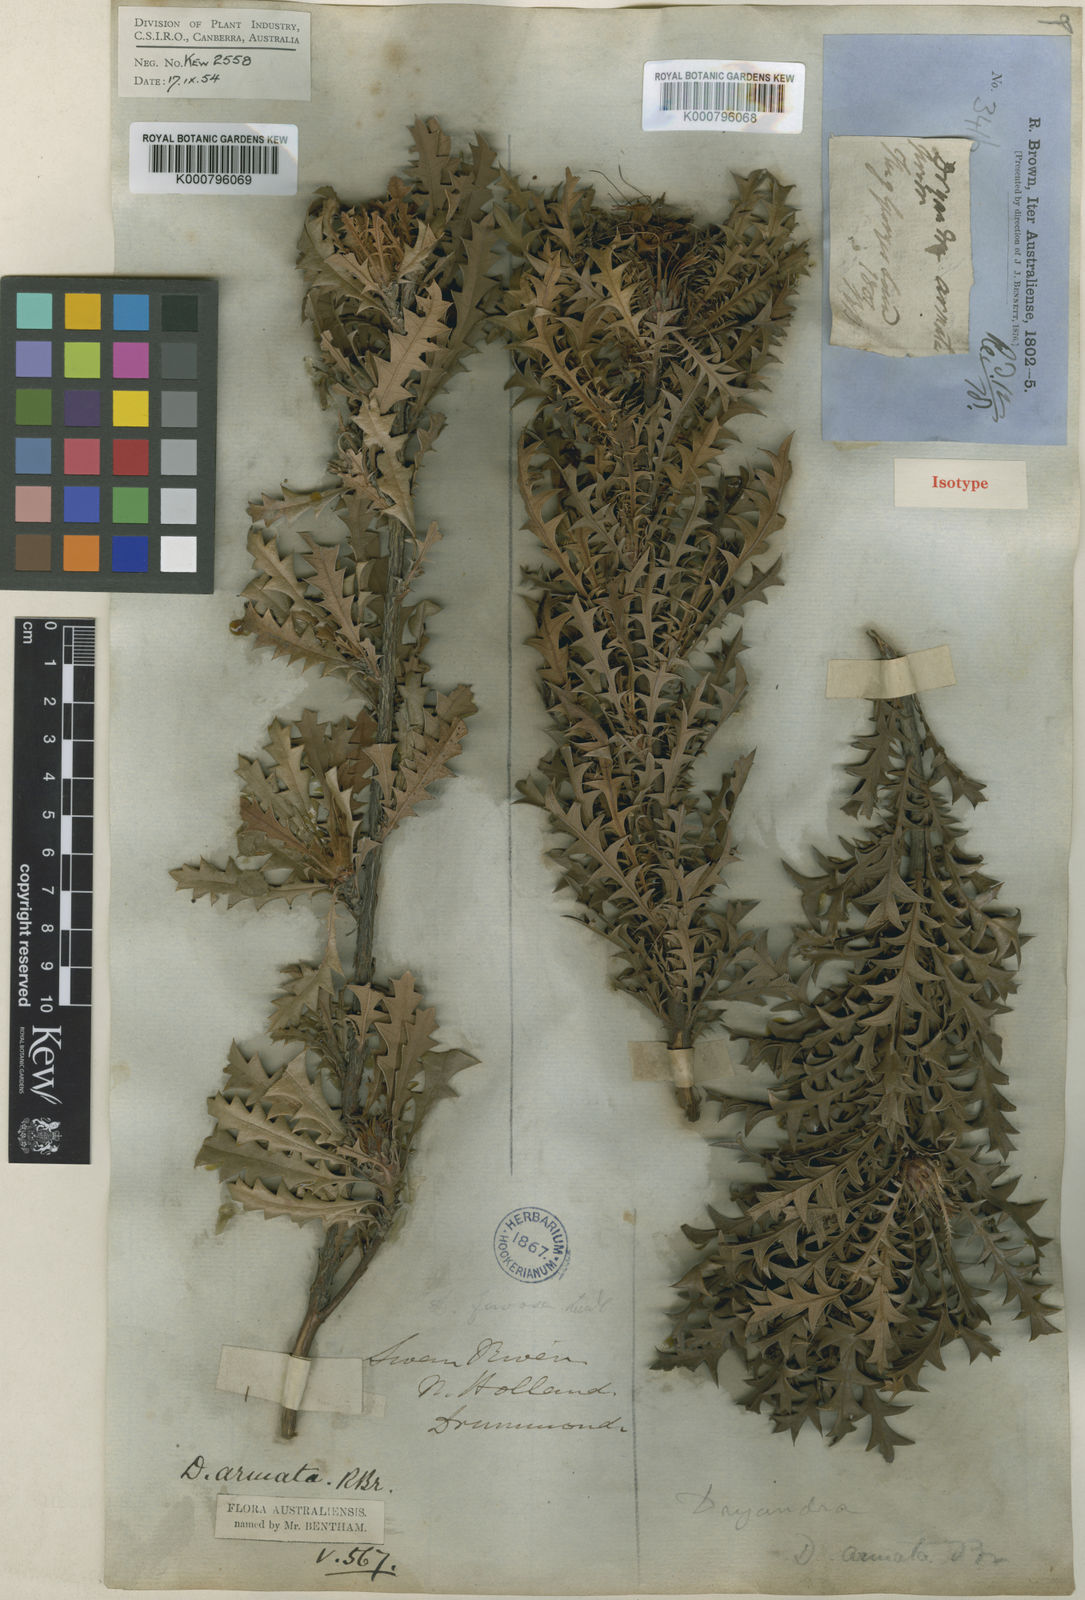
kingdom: Plantae
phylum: Tracheophyta
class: Magnoliopsida
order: Proteales
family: Proteaceae
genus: Banksia
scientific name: Banksia armata
